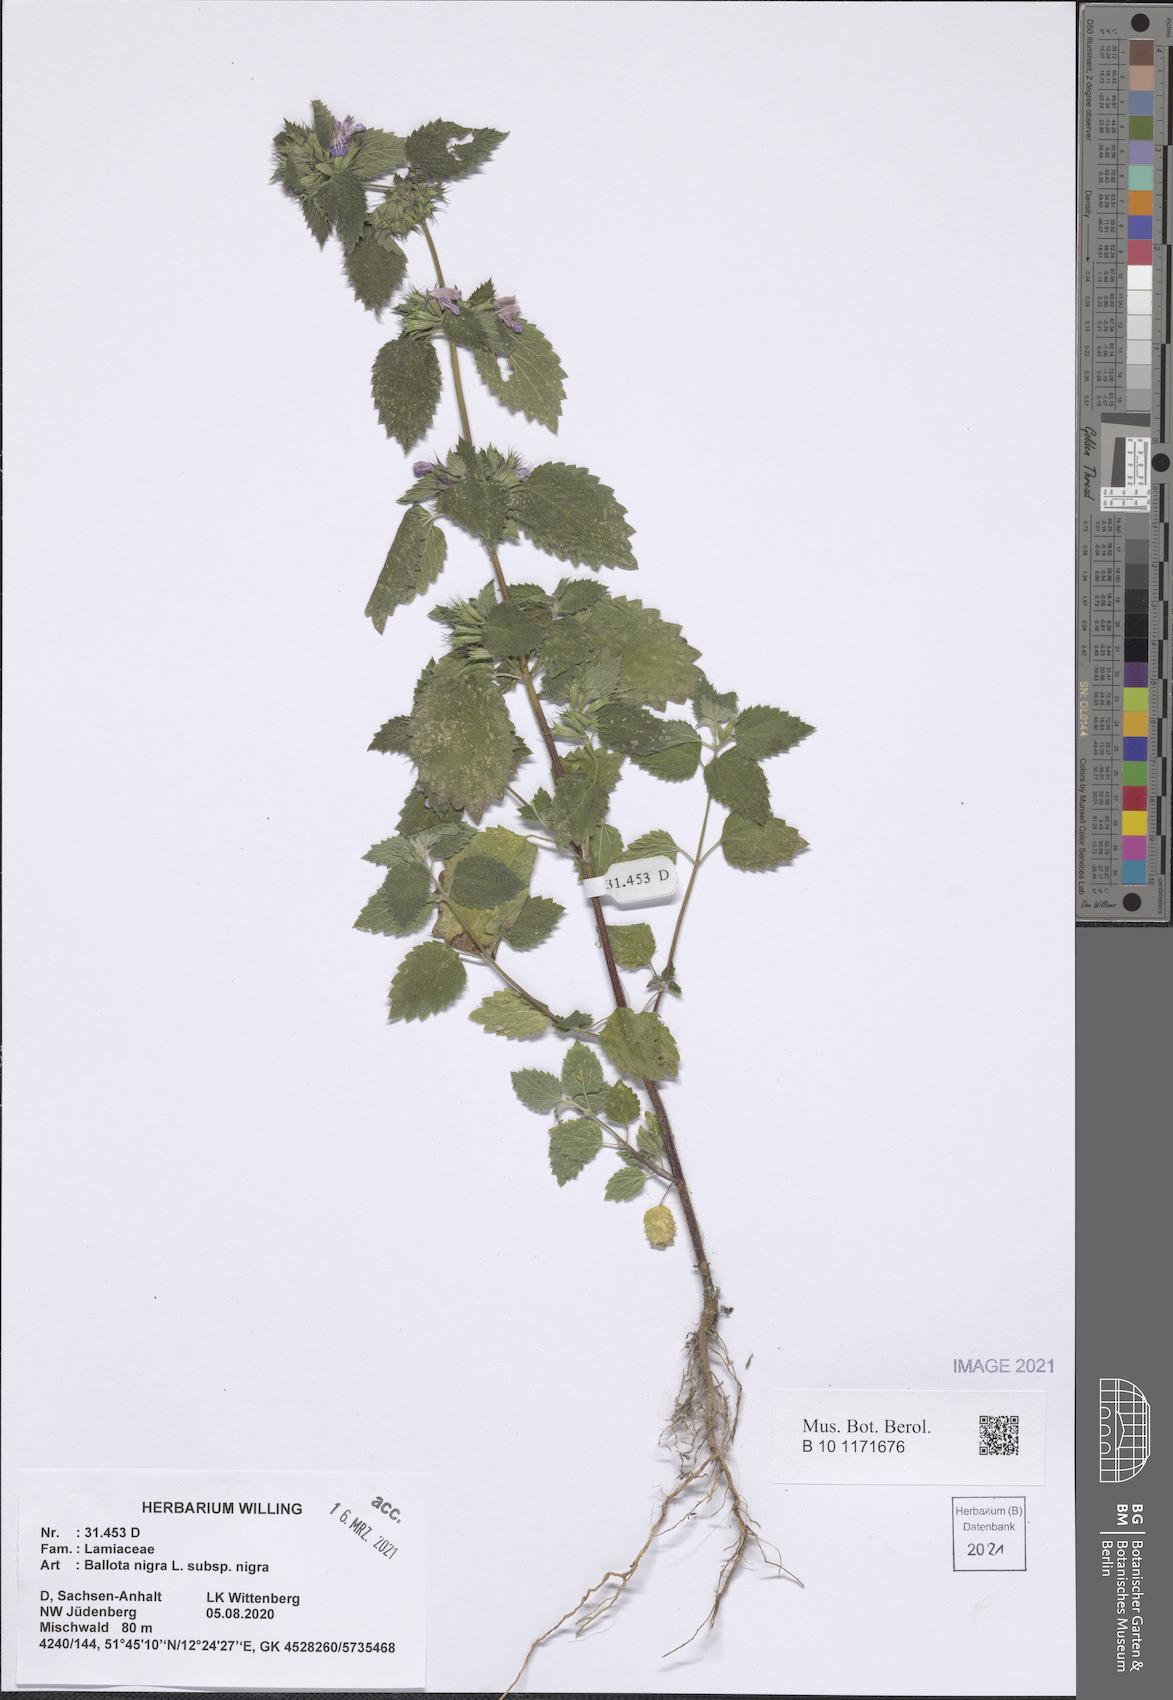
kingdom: Plantae
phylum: Tracheophyta
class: Magnoliopsida
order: Lamiales
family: Lamiaceae
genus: Ballota
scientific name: Ballota nigra
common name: Black horehound
